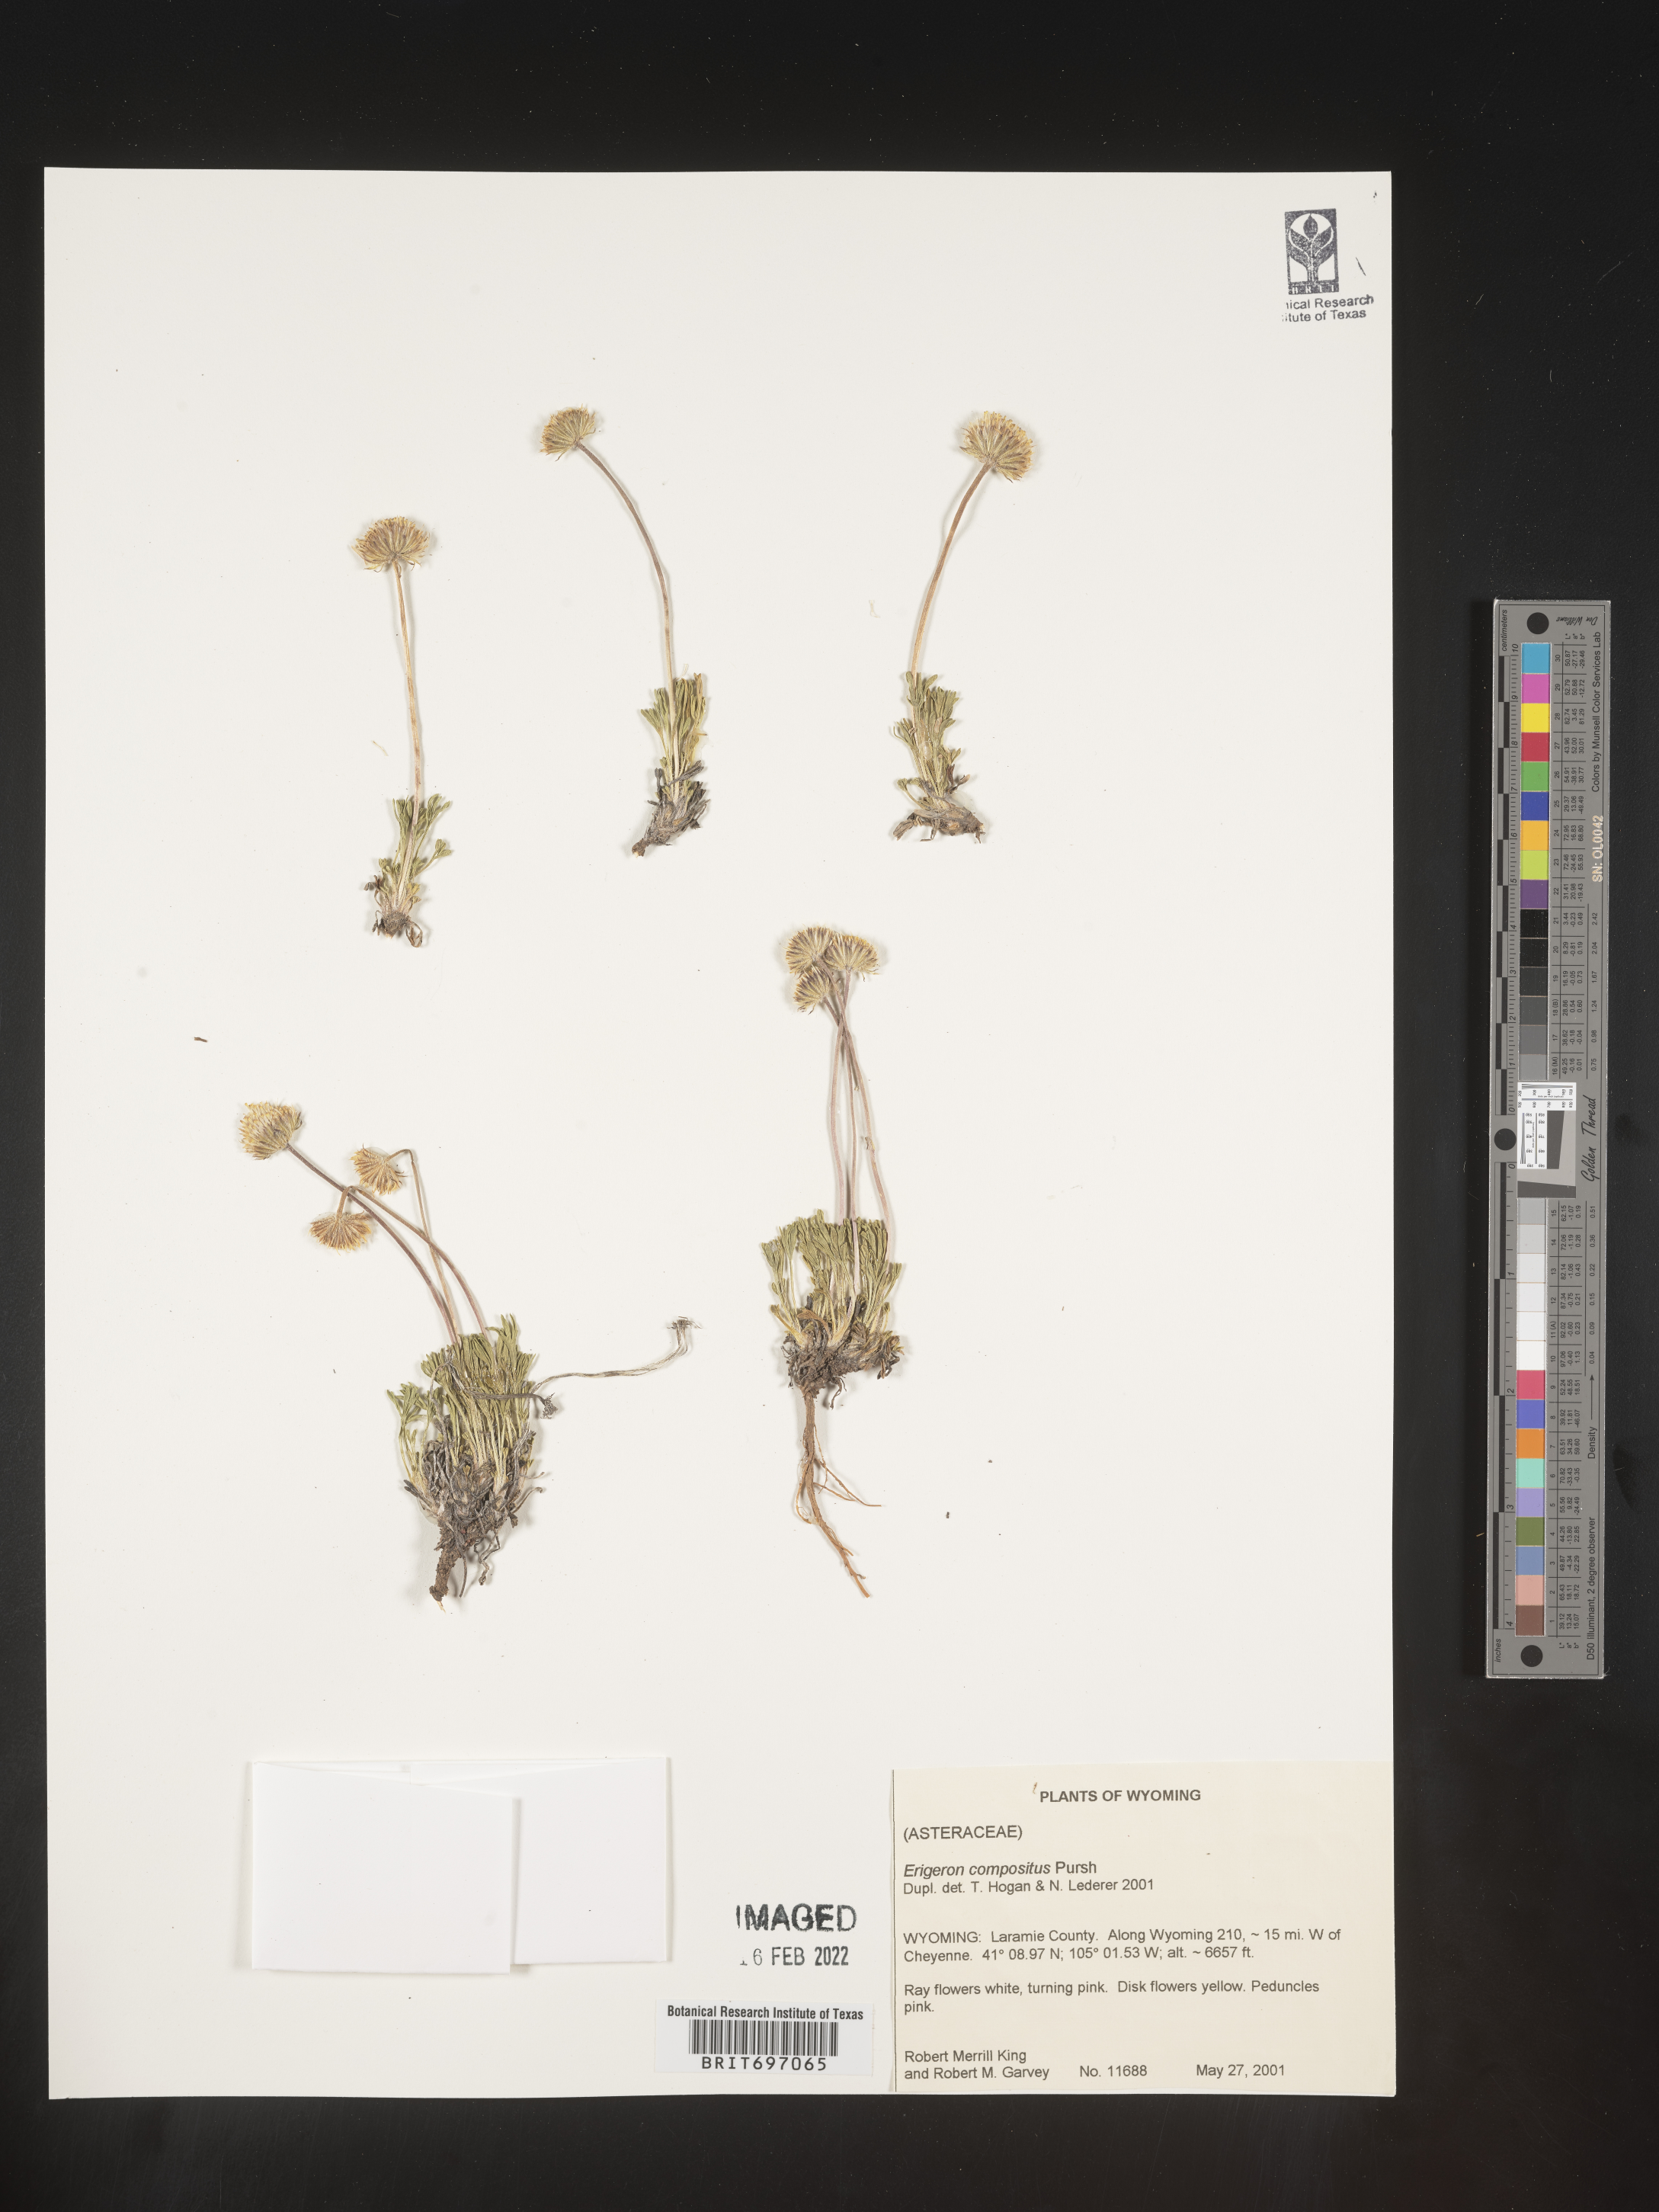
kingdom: Plantae
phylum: Tracheophyta
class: Magnoliopsida
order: Asterales
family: Asteraceae
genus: Erigeron
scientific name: Erigeron compositus
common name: Dwarf mountain fleabane
